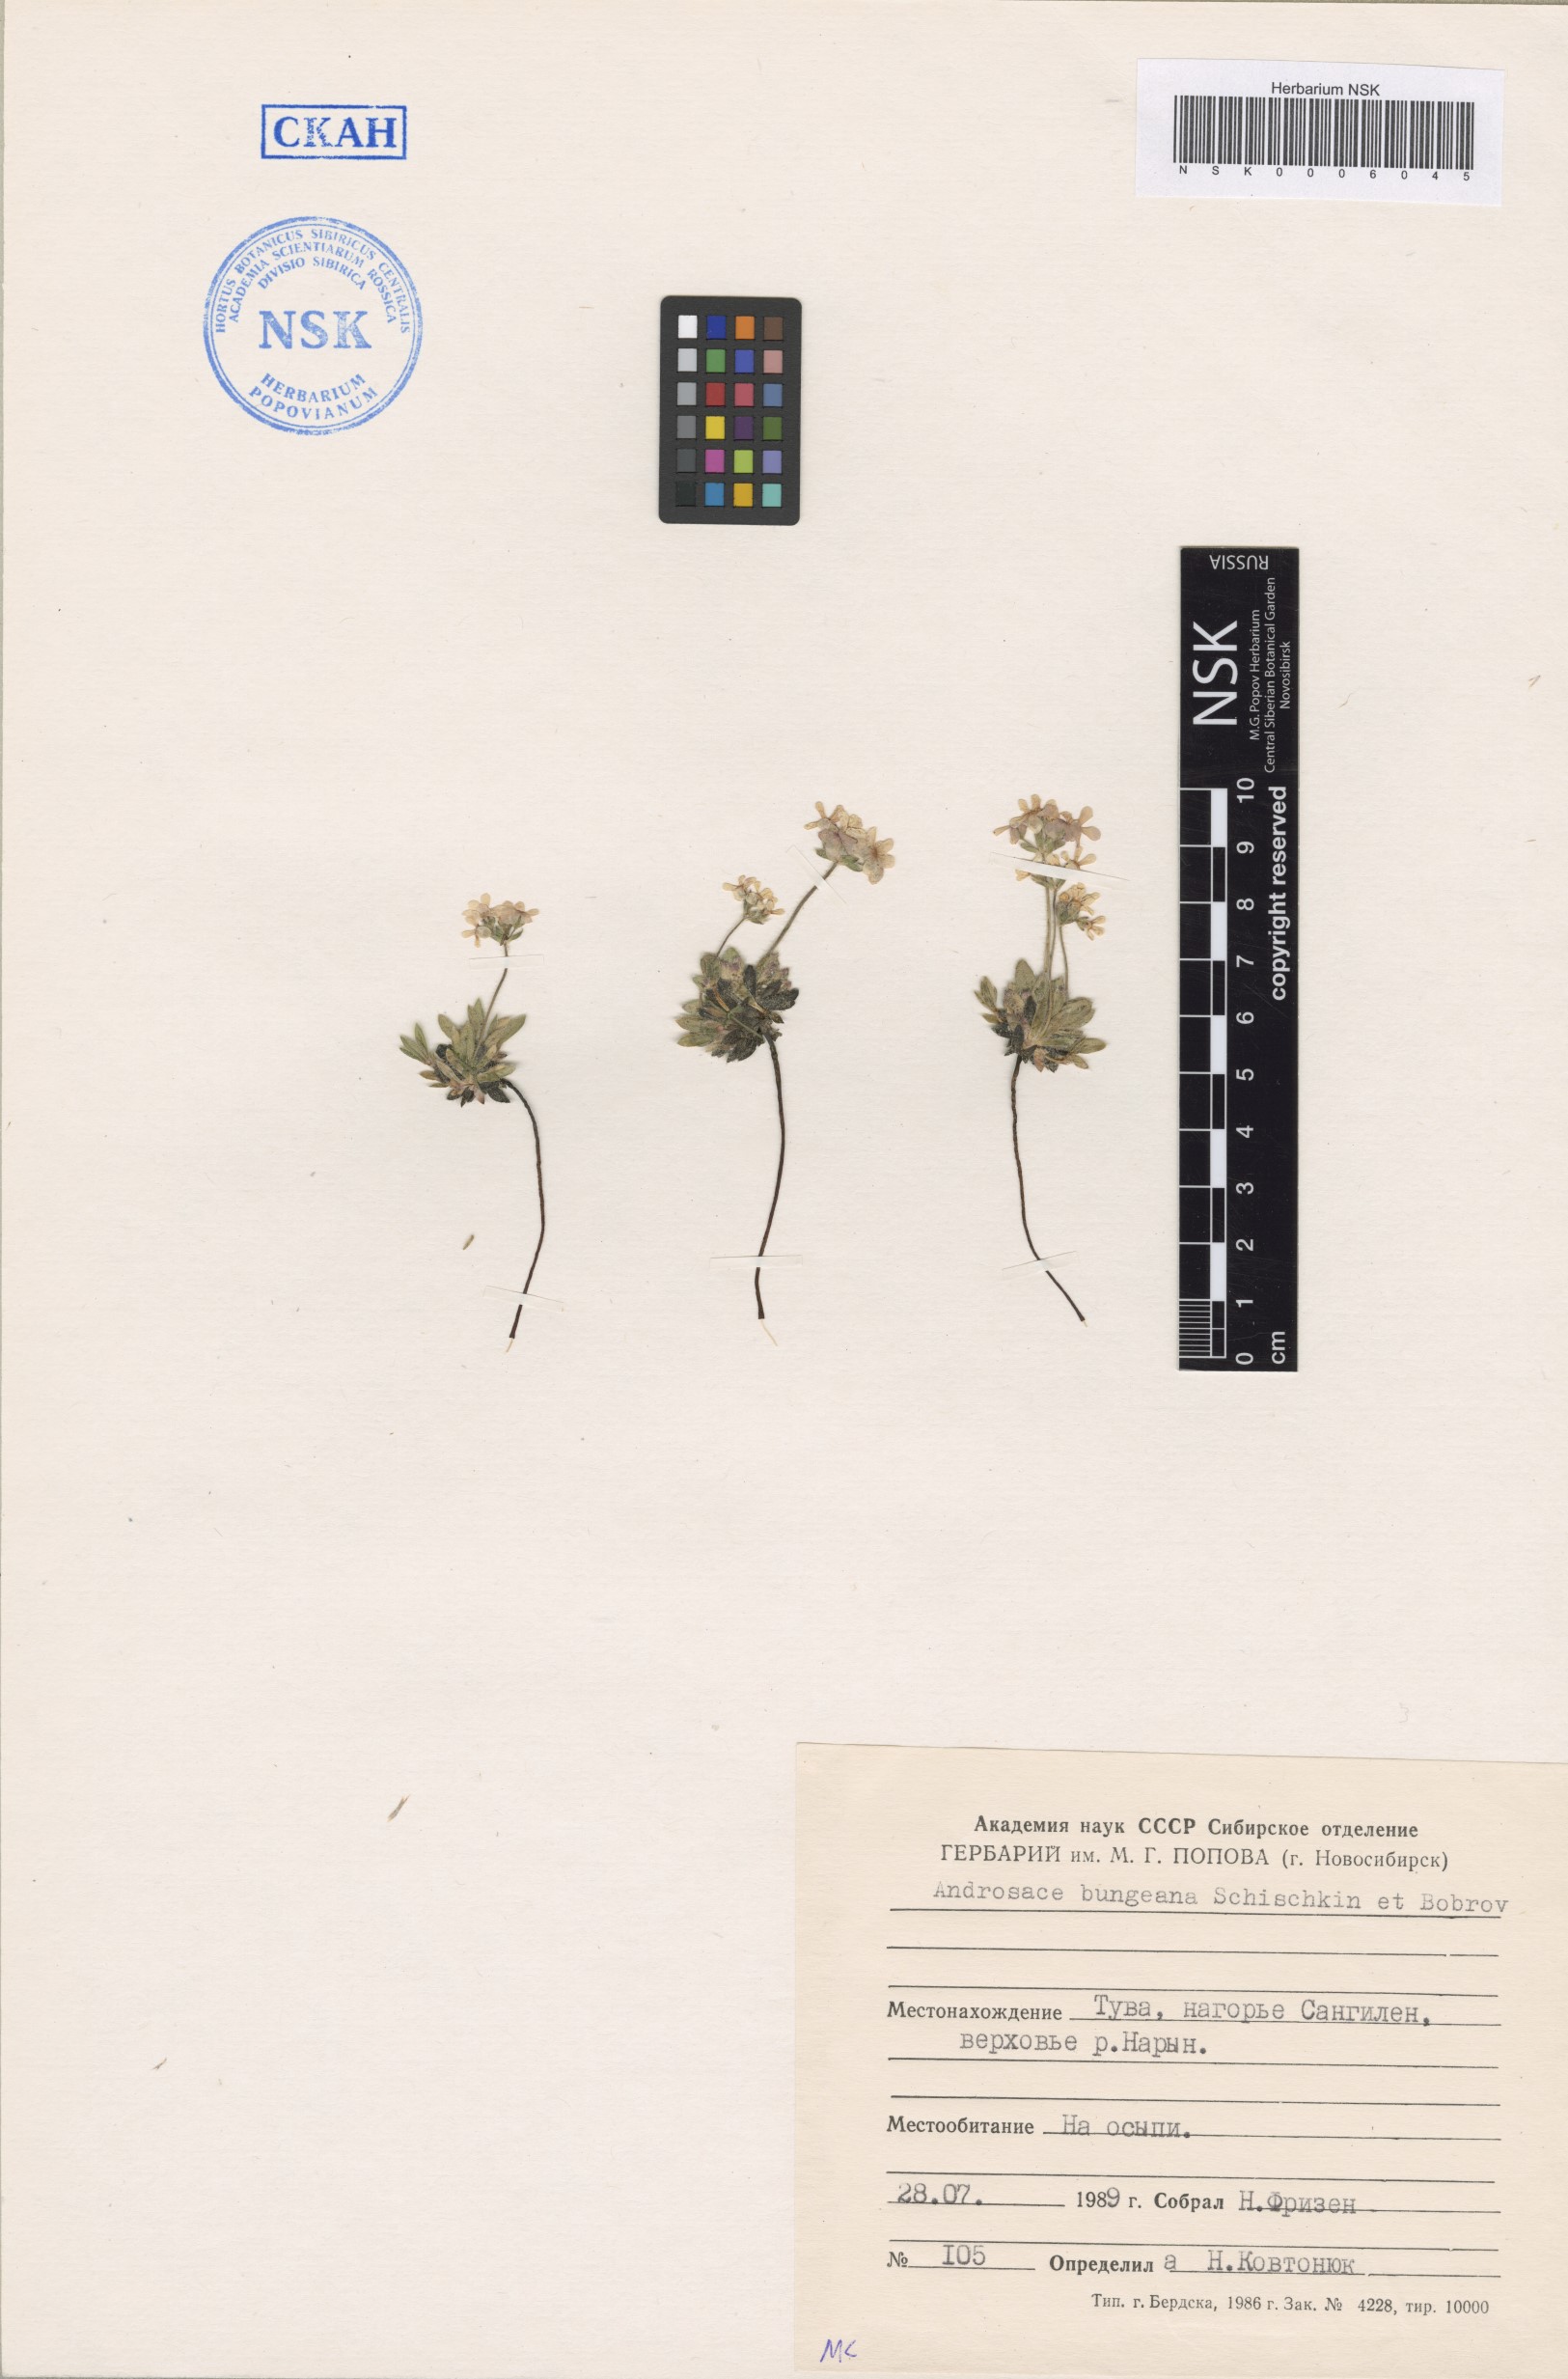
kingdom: Plantae
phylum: Tracheophyta
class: Magnoliopsida
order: Ericales
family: Primulaceae
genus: Androsace
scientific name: Androsace bungeana
